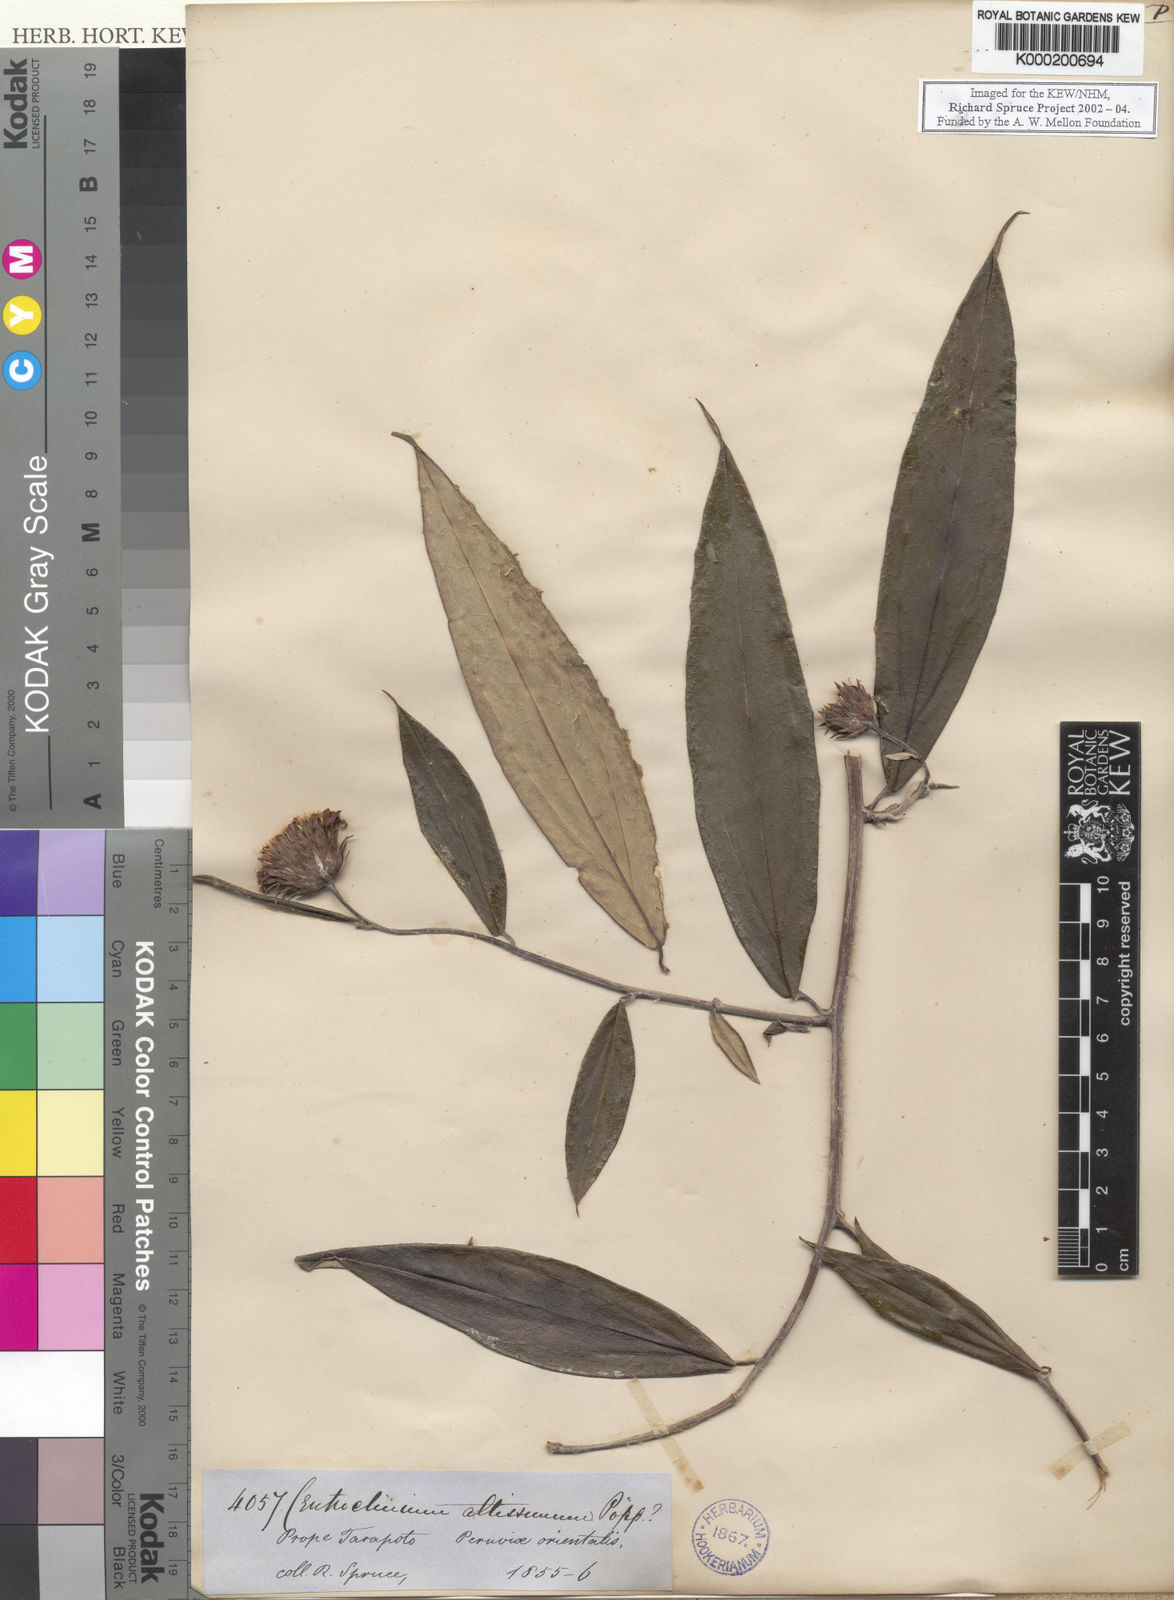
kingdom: Plantae
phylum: Tracheophyta
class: Magnoliopsida
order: Asterales
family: Asteraceae
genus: Lycoseris
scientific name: Lycoseris trinervis
